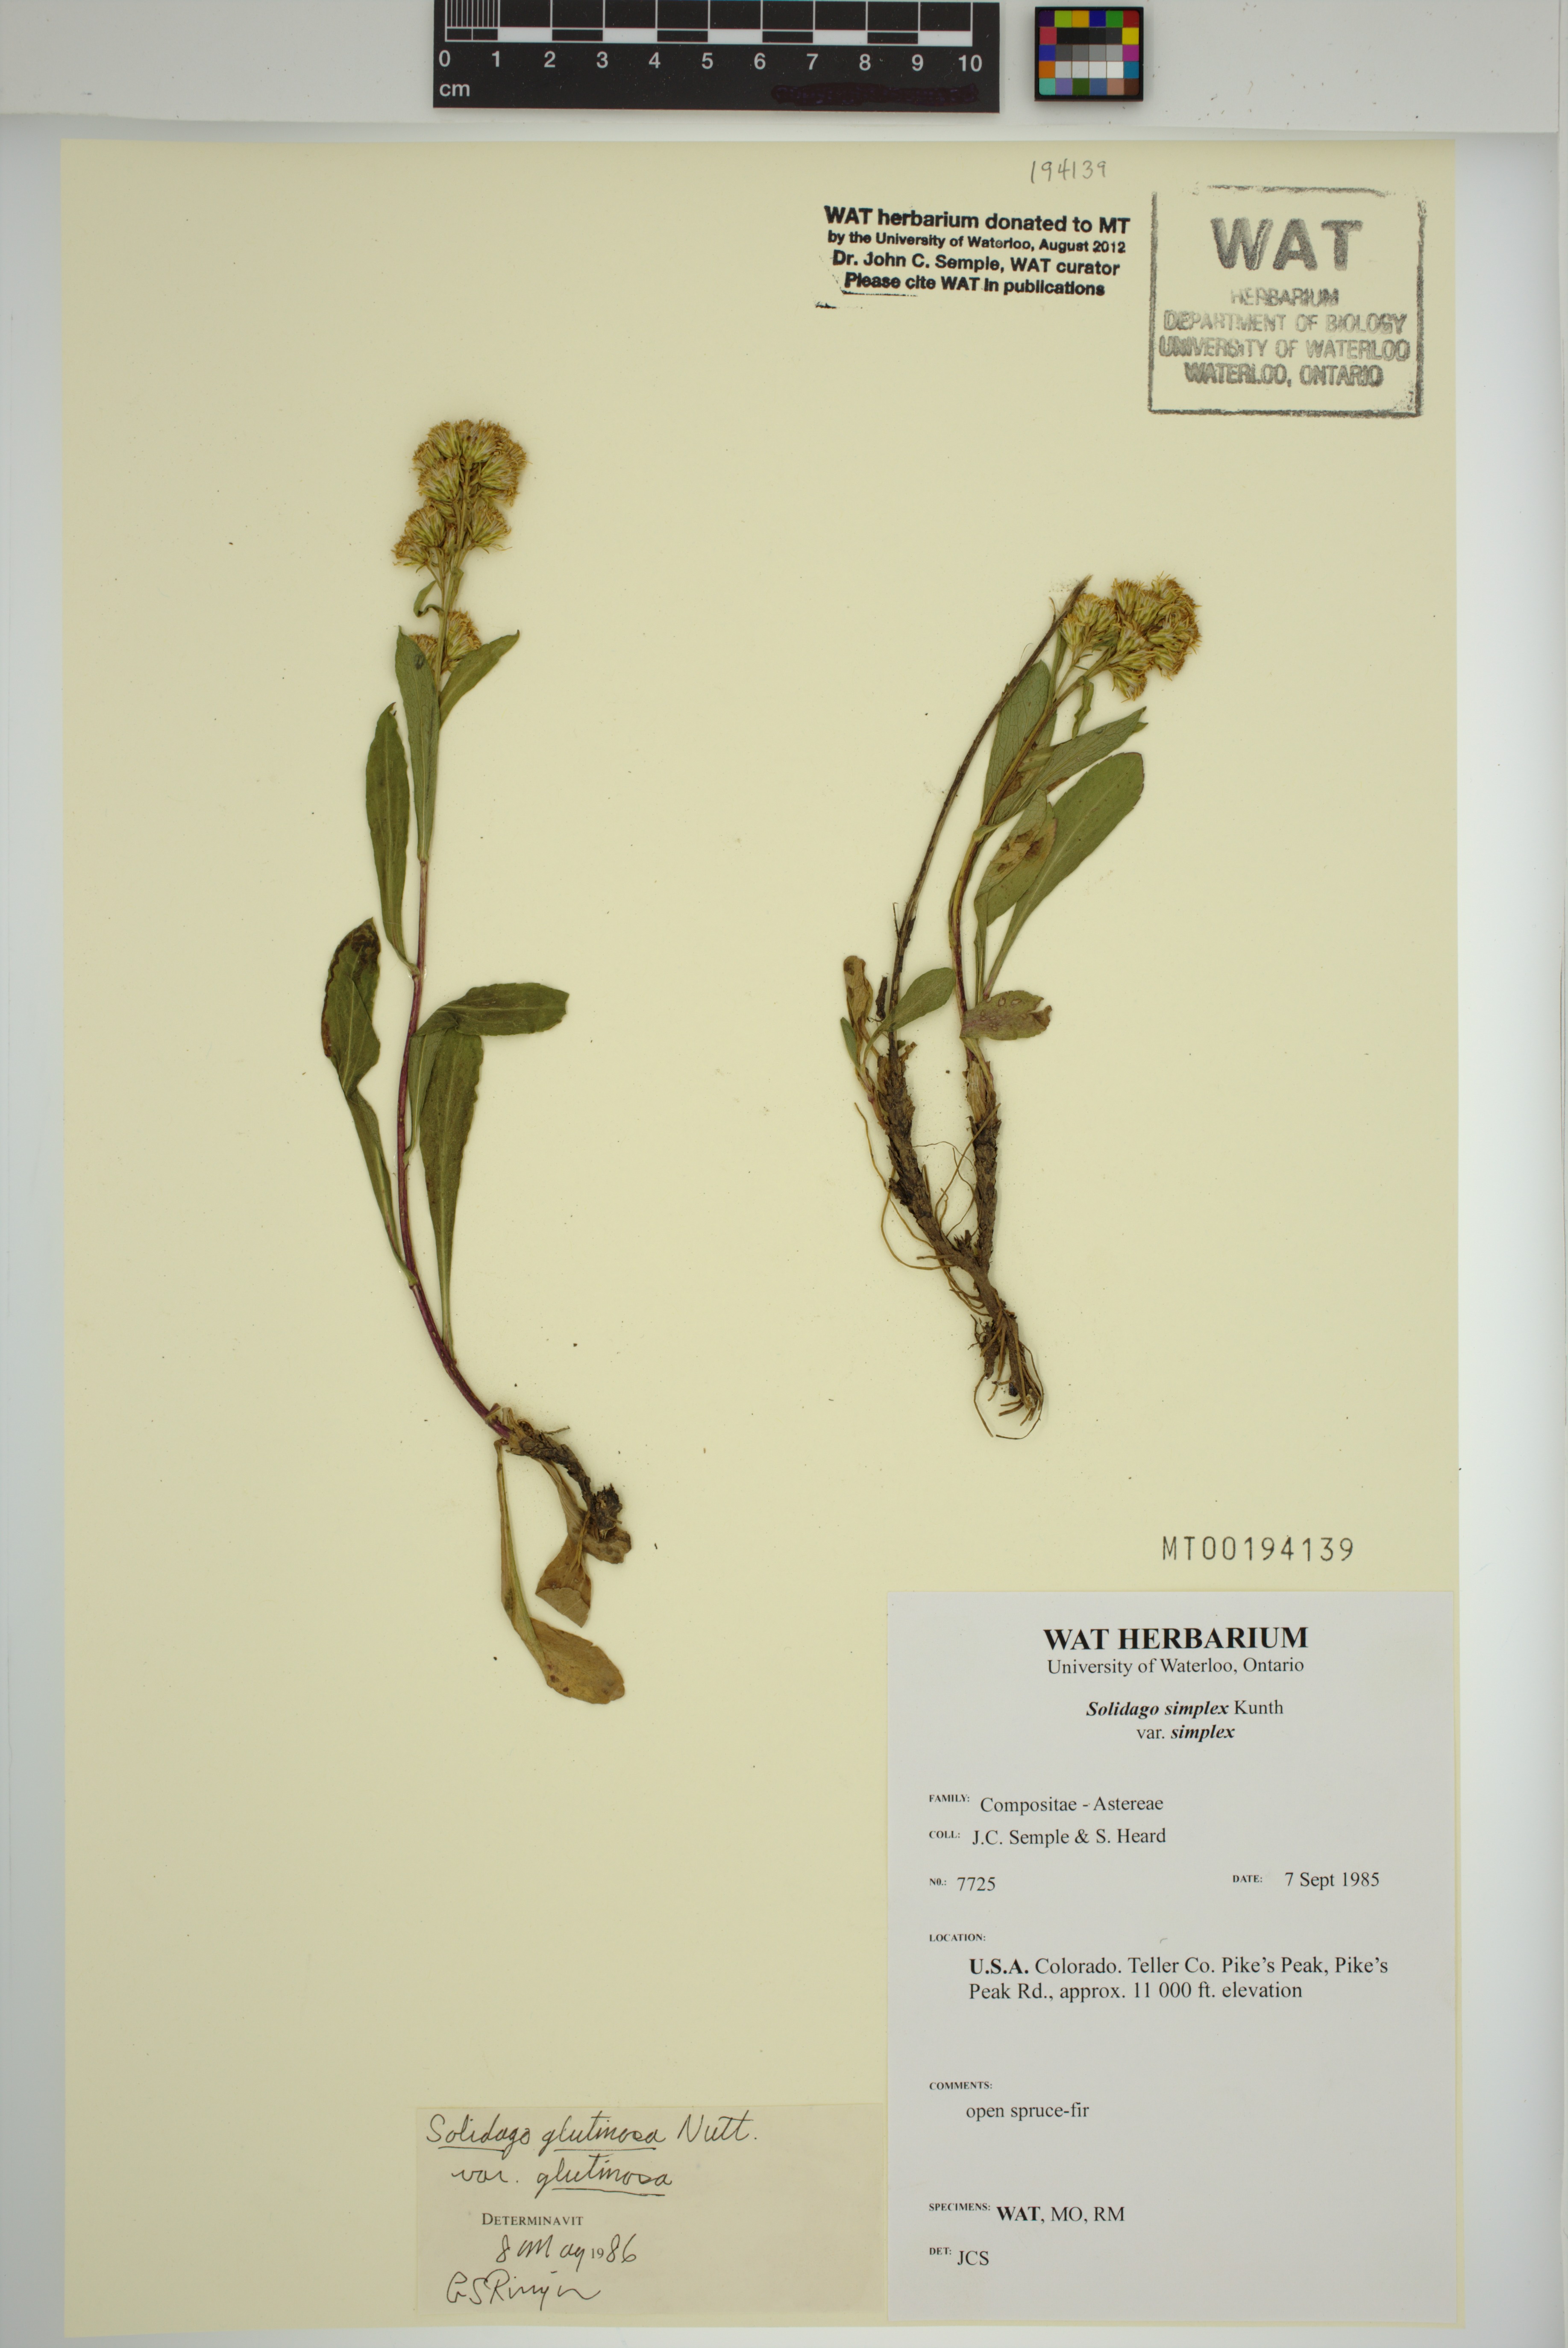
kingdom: Plantae
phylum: Tracheophyta
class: Magnoliopsida
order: Asterales
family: Asteraceae
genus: Solidago
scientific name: Solidago glutinosa
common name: Decumbent goldenrod
